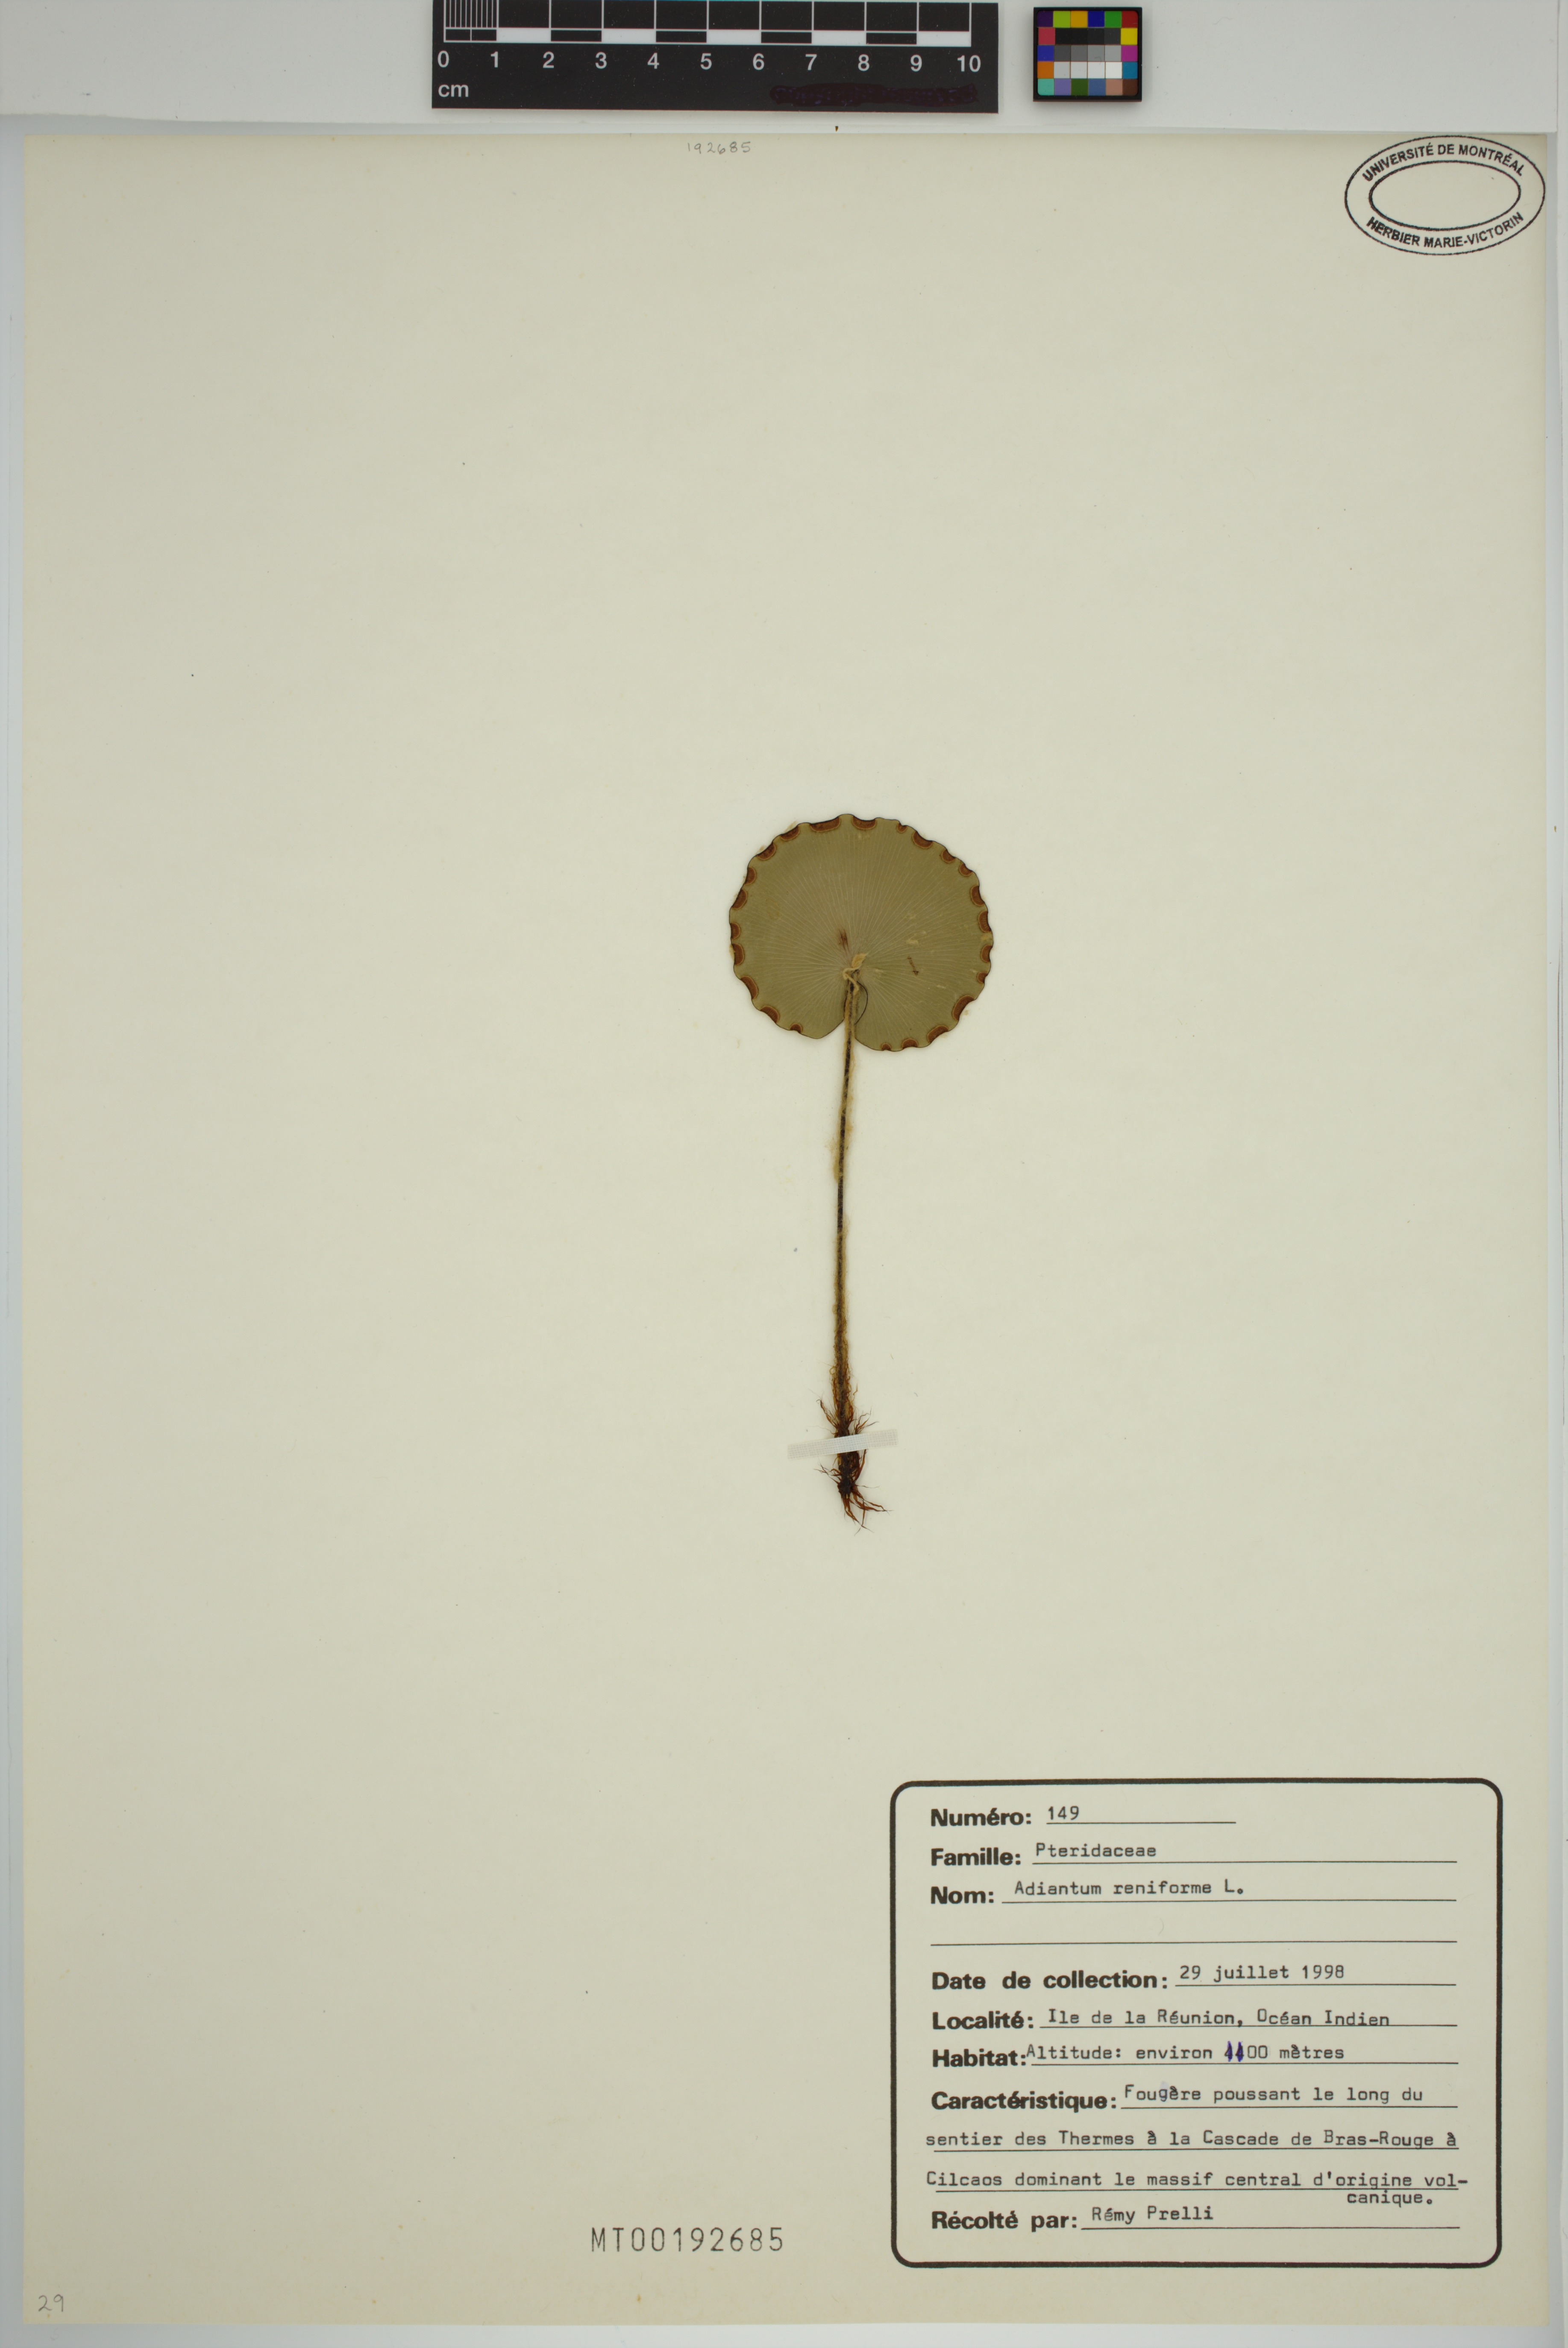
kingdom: Plantae
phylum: Tracheophyta
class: Polypodiopsida
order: Polypodiales
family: Pteridaceae
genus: Adiantum
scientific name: Adiantum reniforme
